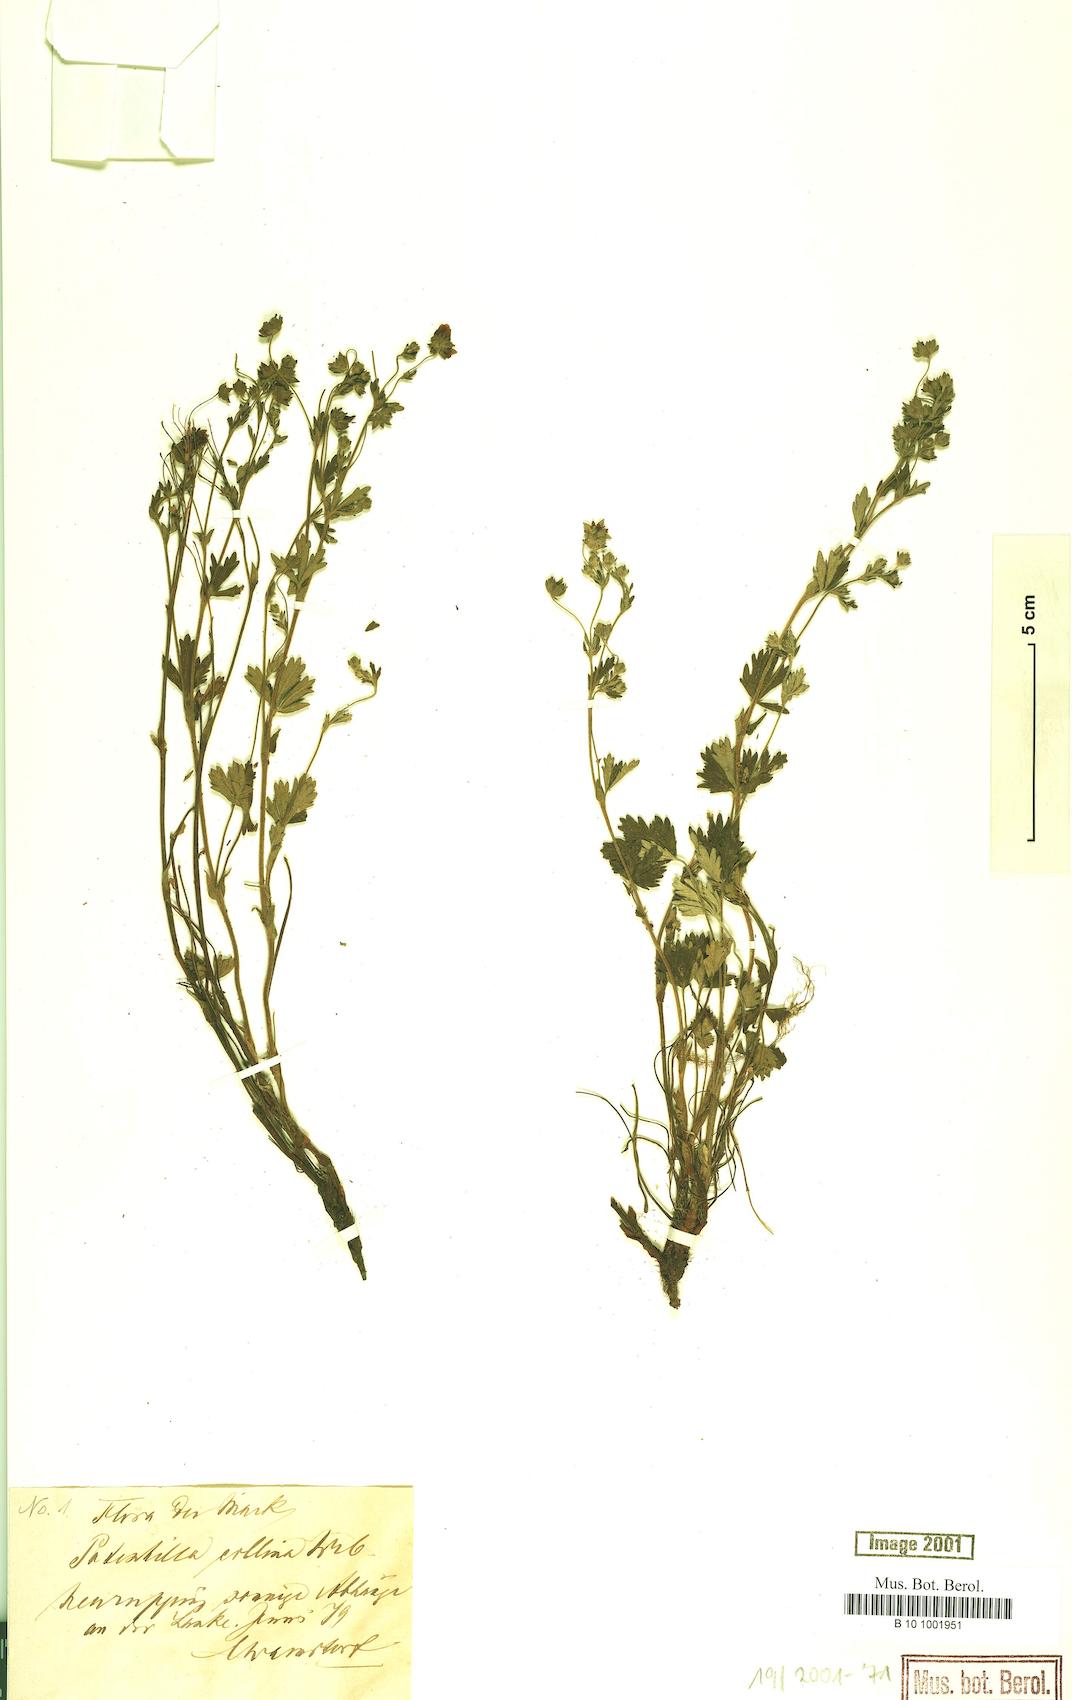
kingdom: Plantae
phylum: Tracheophyta
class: Magnoliopsida
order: Rosales
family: Rosaceae
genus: Potentilla
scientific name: Potentilla collina
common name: Palmleaf cinquefoil
